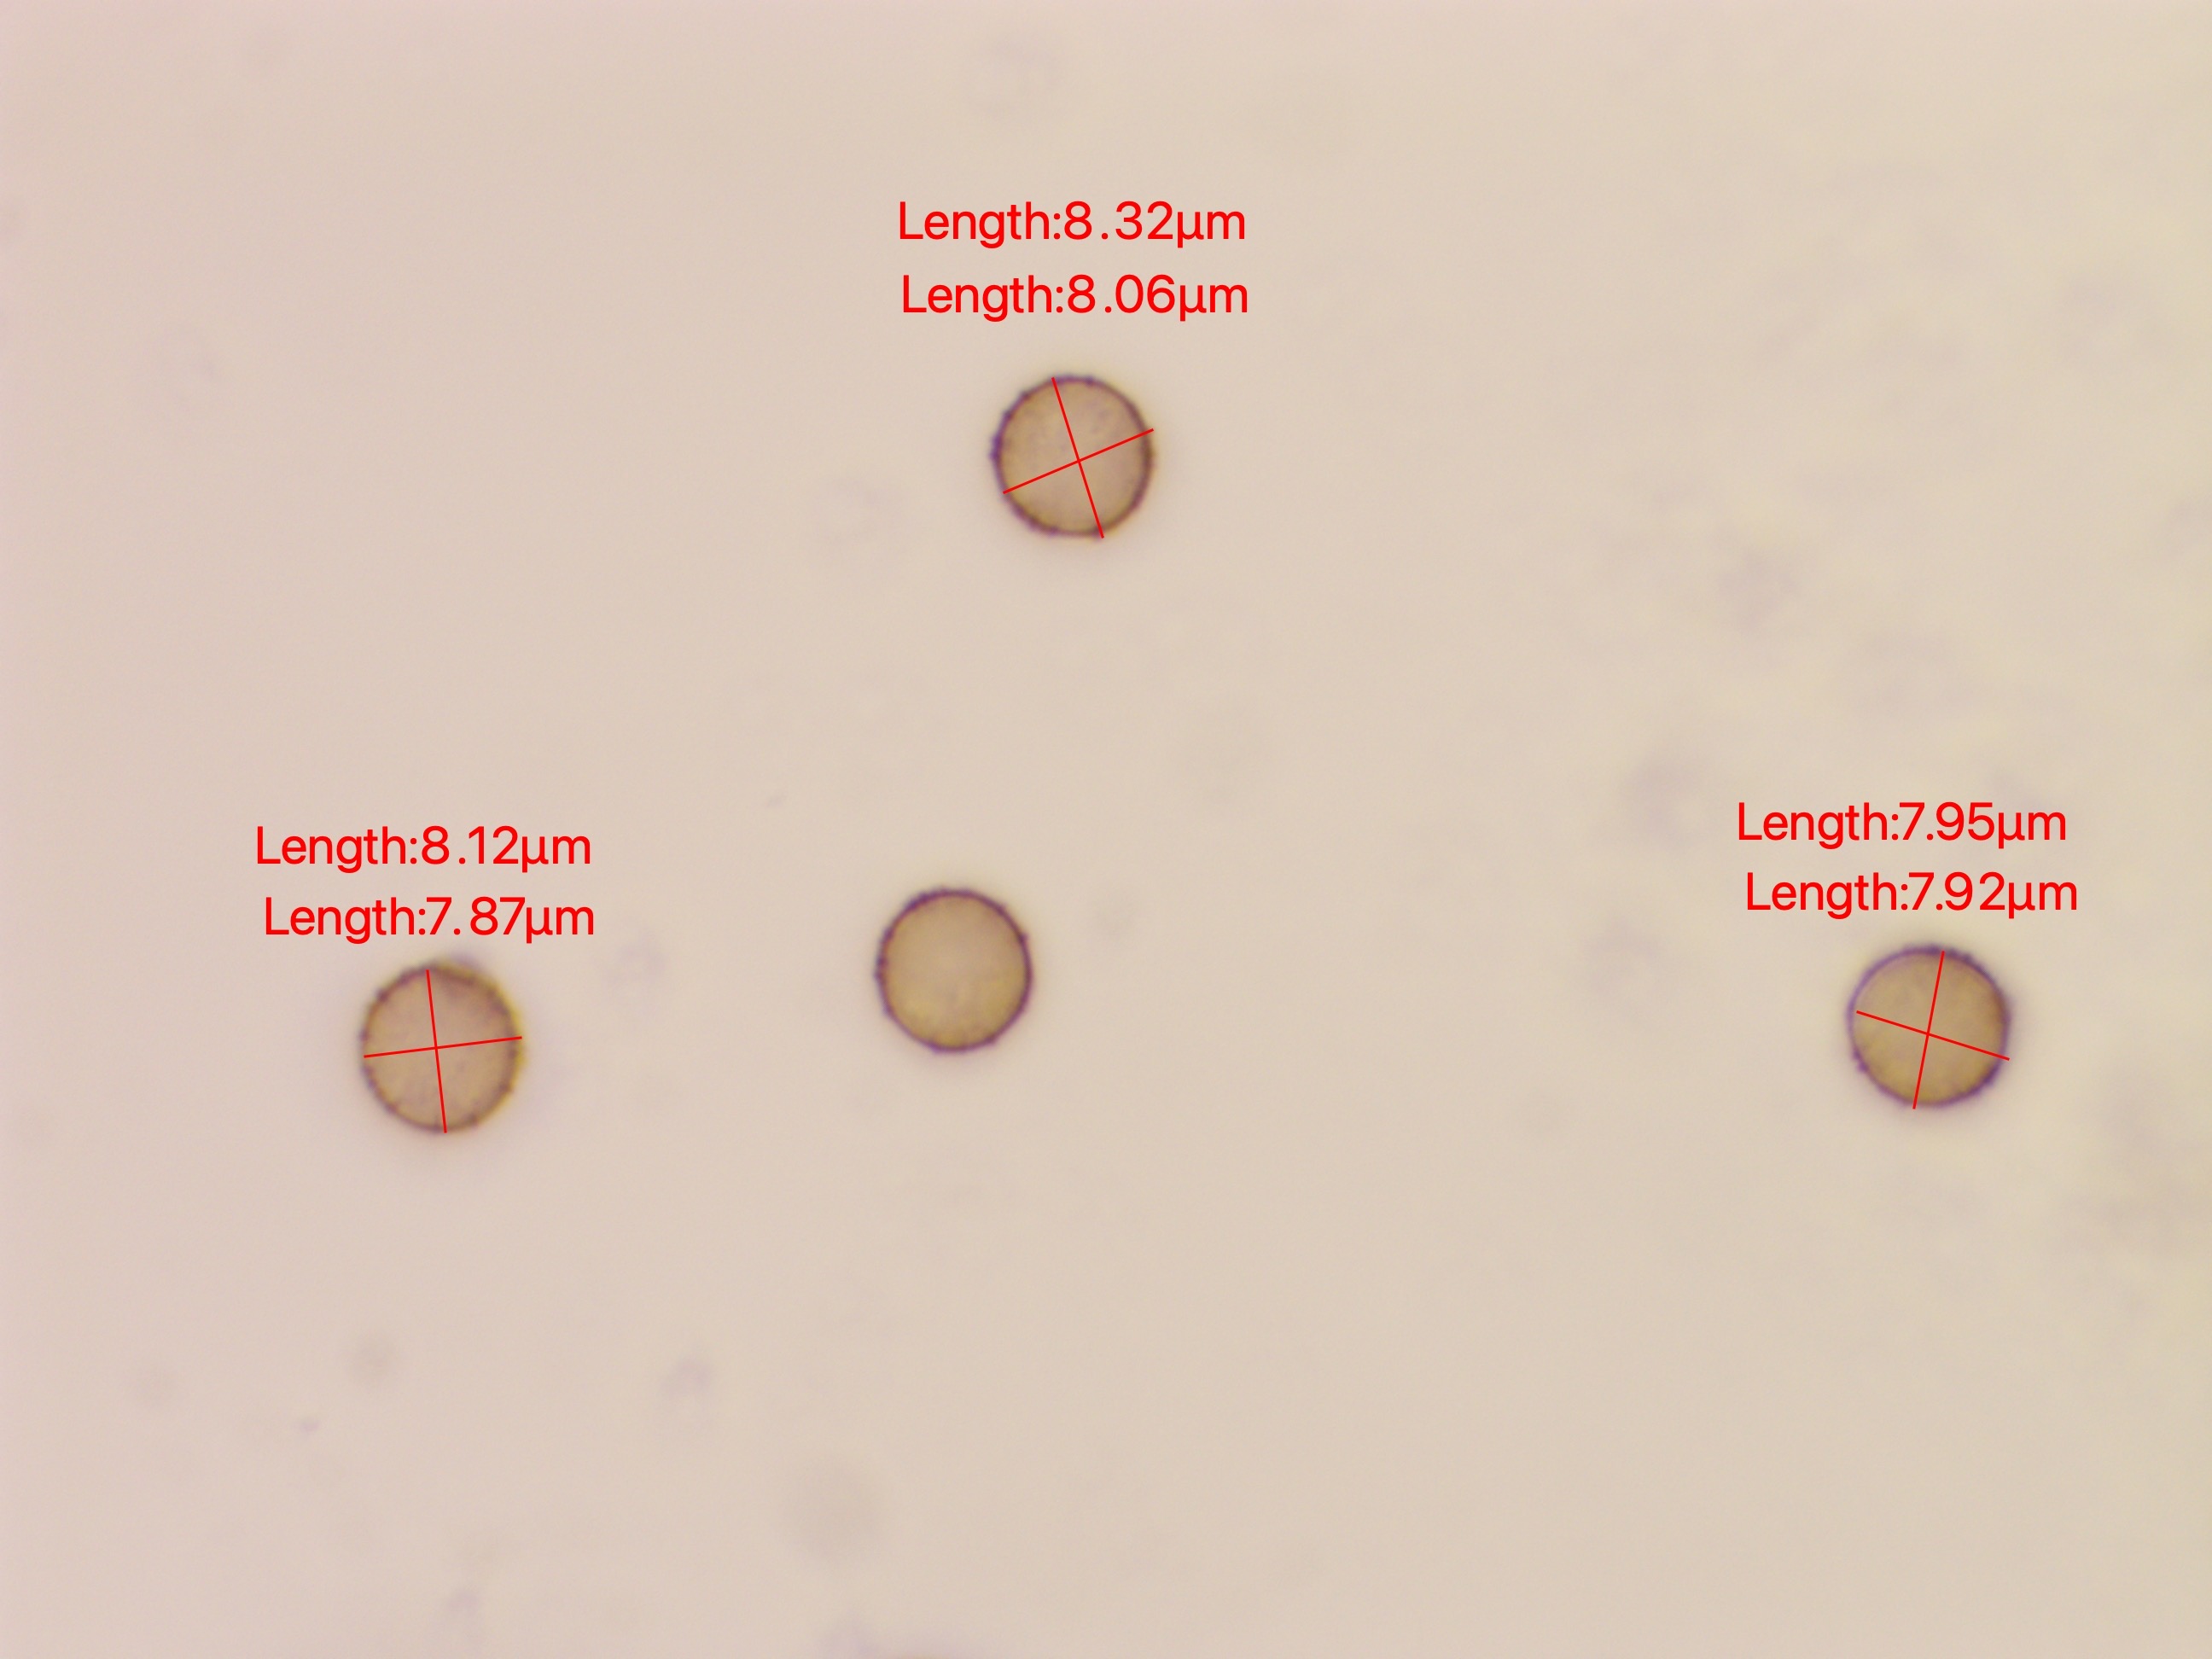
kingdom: Protozoa
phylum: Mycetozoa
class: Myxomycetes
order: Stemonitidales
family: Stemonitidaceae
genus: Stemonitis
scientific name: Stemonitis
